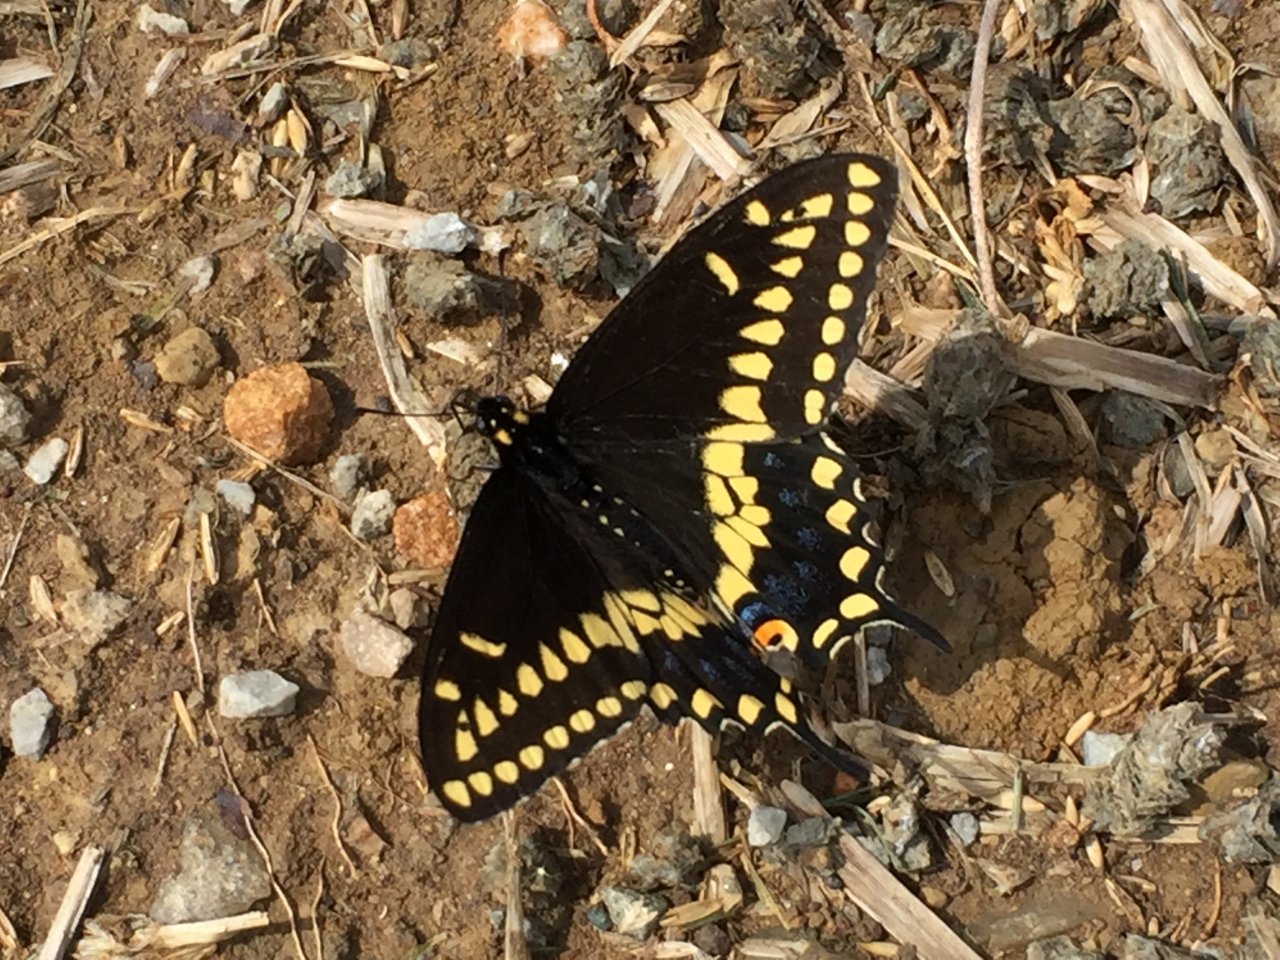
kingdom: Animalia
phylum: Arthropoda
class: Insecta
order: Lepidoptera
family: Papilionidae
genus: Papilio
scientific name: Papilio polyxenes
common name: Black Swallowtail
